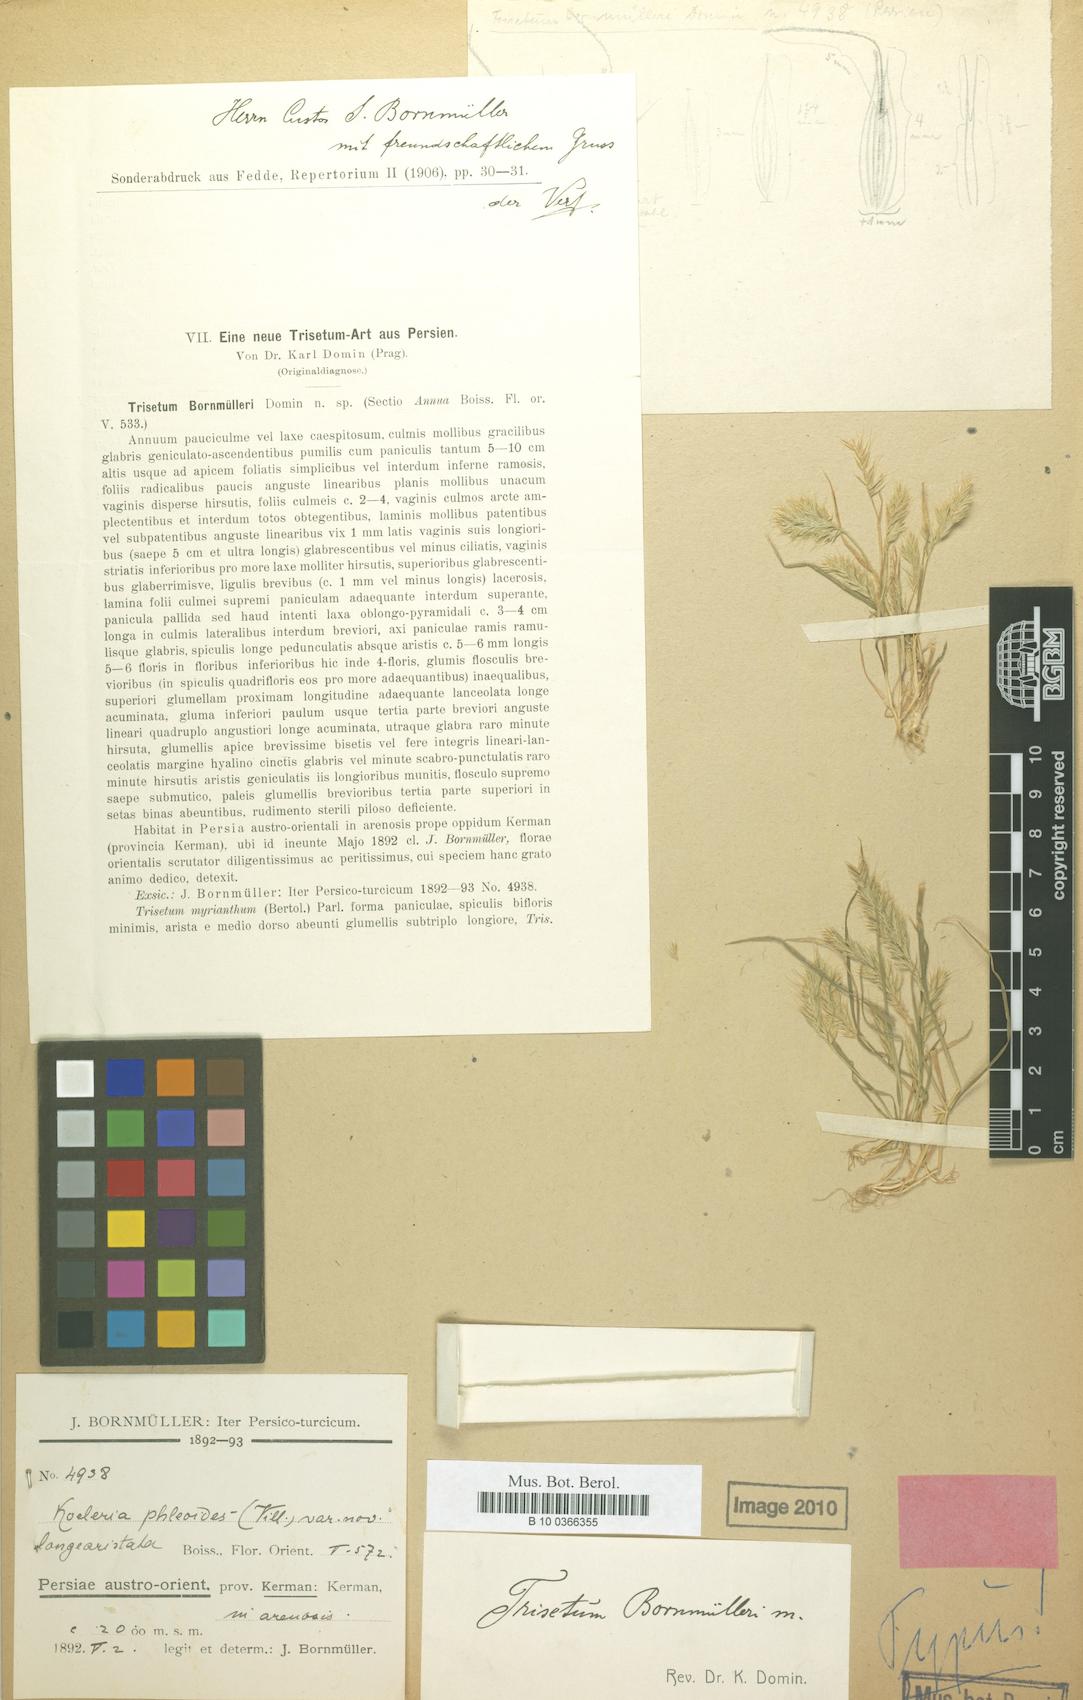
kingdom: Plantae
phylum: Tracheophyta
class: Liliopsida
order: Poales
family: Poaceae
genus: Avenula
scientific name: Avenula pubescens
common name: Downy alpine oatgrass
